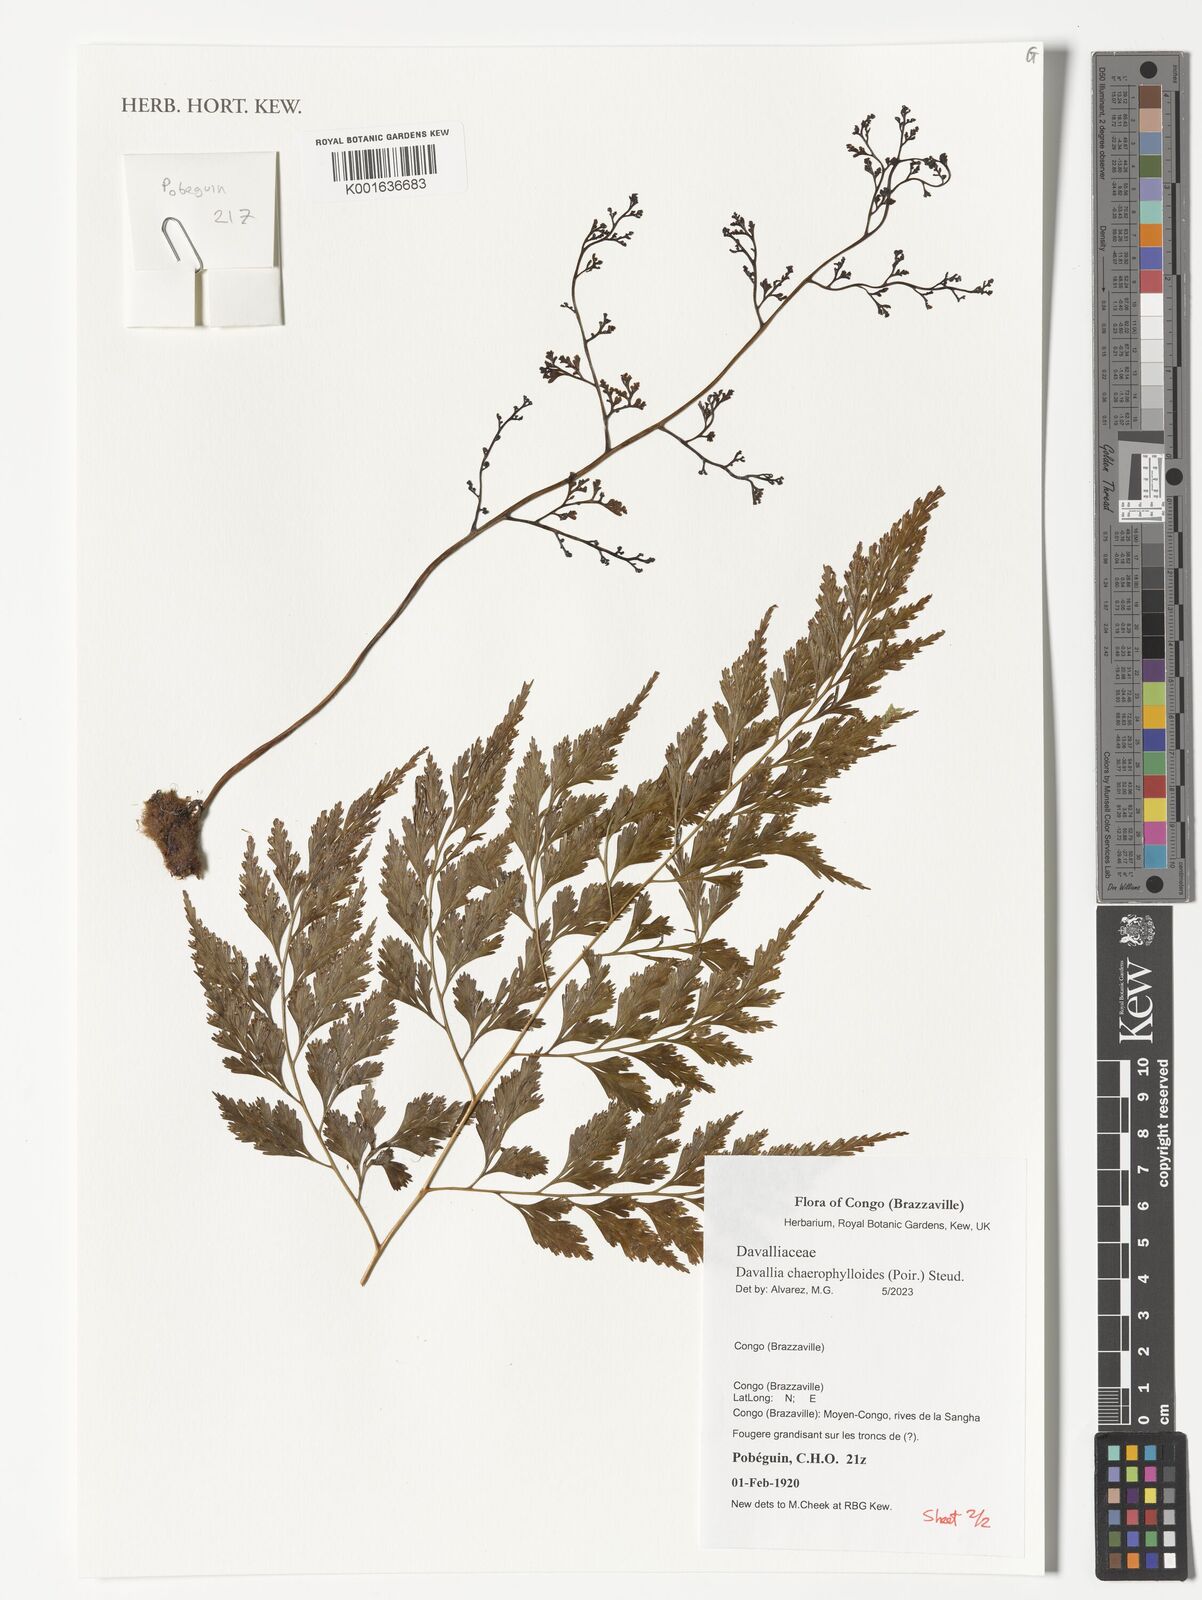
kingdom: Plantae
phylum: Tracheophyta
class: Polypodiopsida
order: Polypodiales
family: Davalliaceae
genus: Davallia
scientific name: Davallia chaerophylloides
